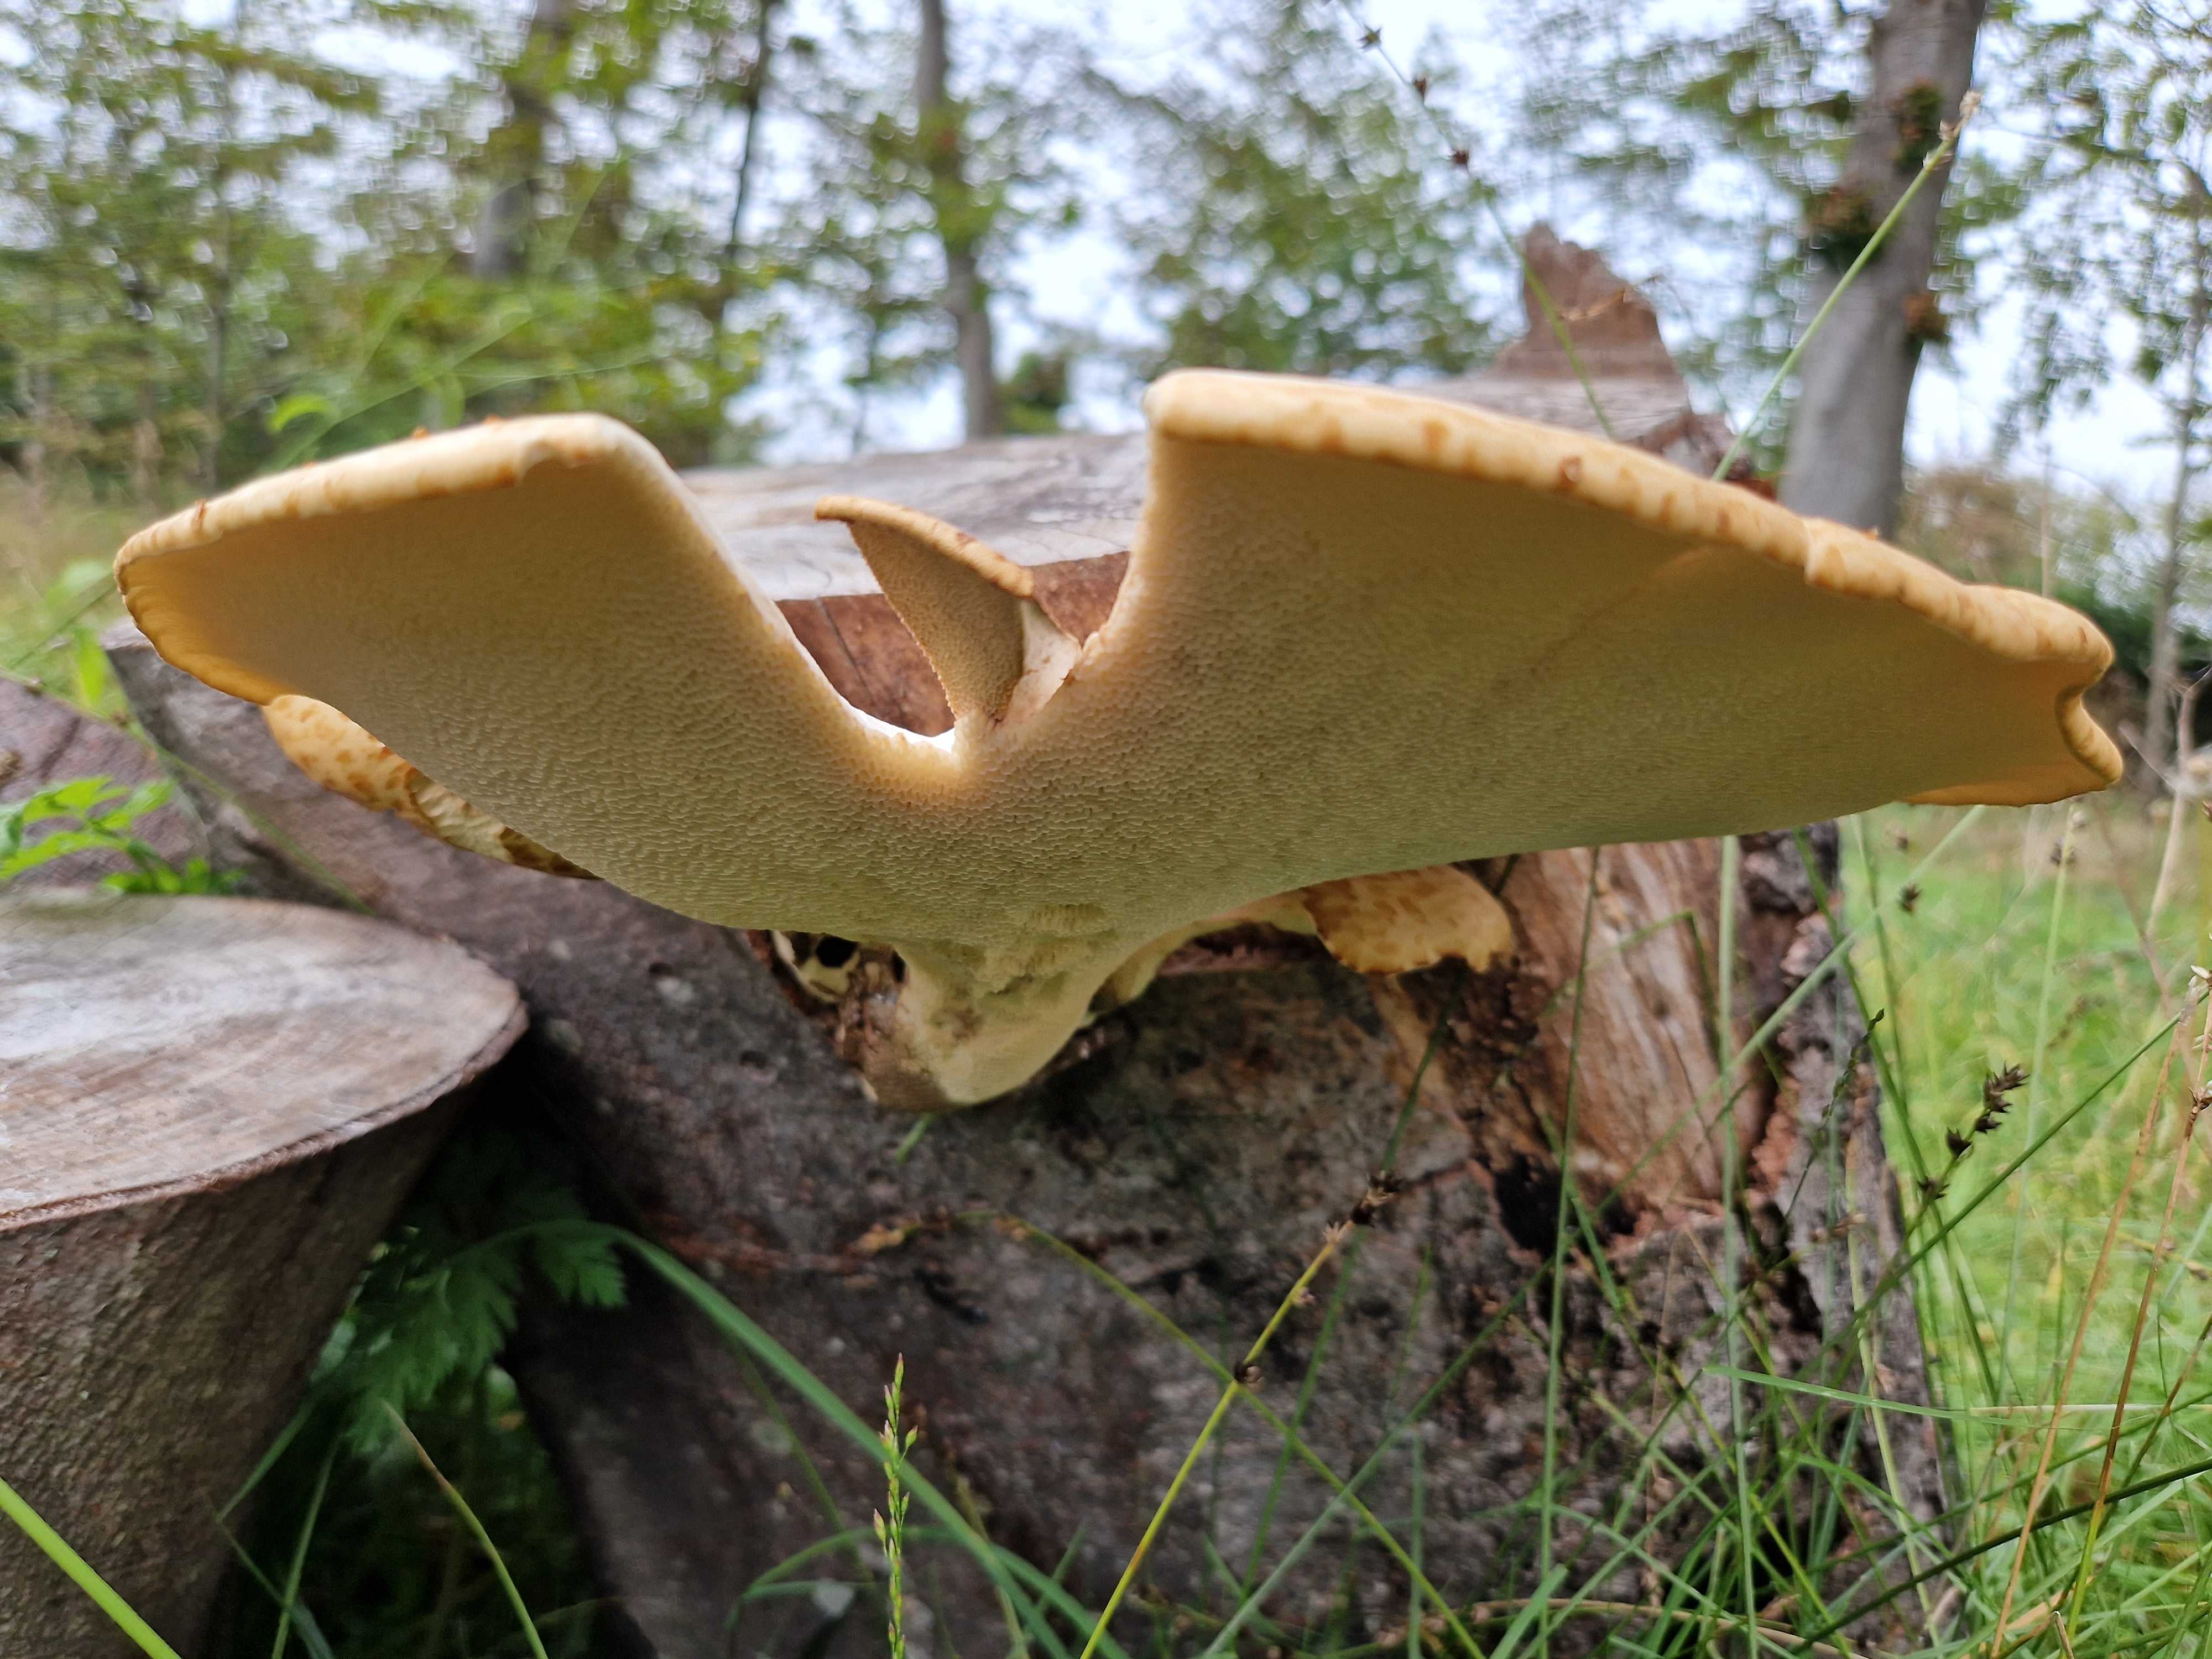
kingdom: Fungi
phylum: Basidiomycota
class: Agaricomycetes
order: Polyporales
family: Polyporaceae
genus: Cerioporus
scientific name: Cerioporus squamosus
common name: skællet stilkporesvamp
